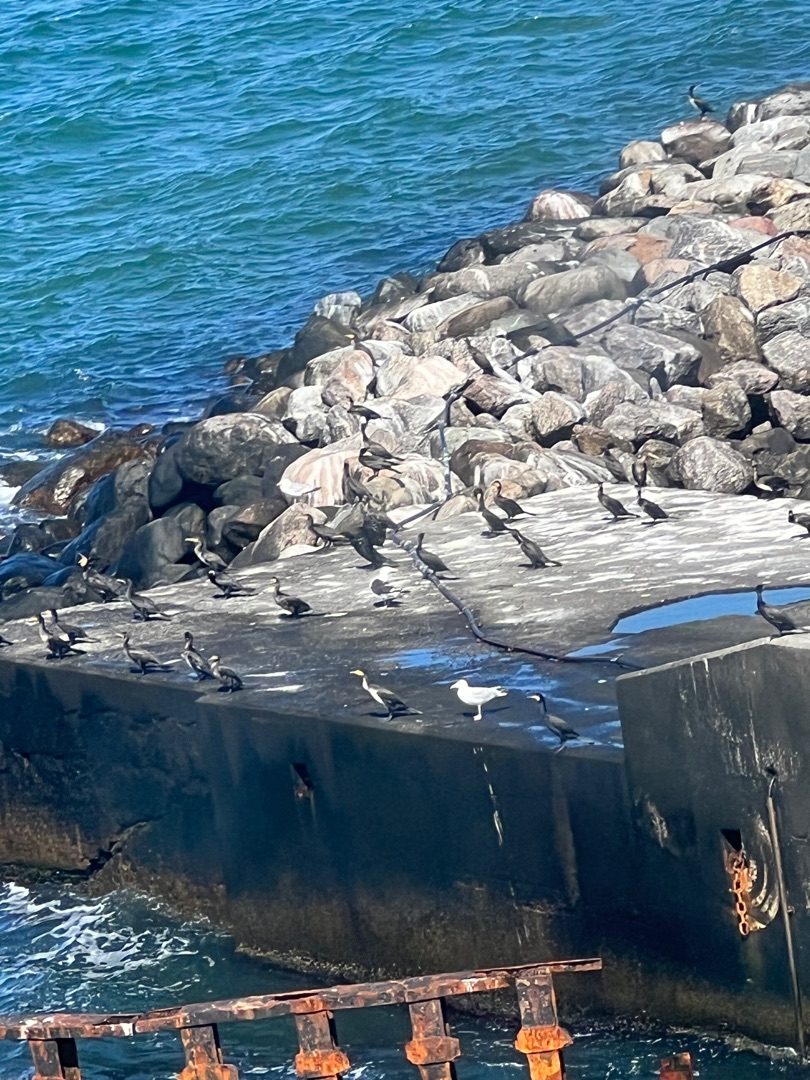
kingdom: Animalia
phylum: Chordata
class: Aves
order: Suliformes
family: Phalacrocoracidae
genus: Phalacrocorax
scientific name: Phalacrocorax carbo
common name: Skarv
